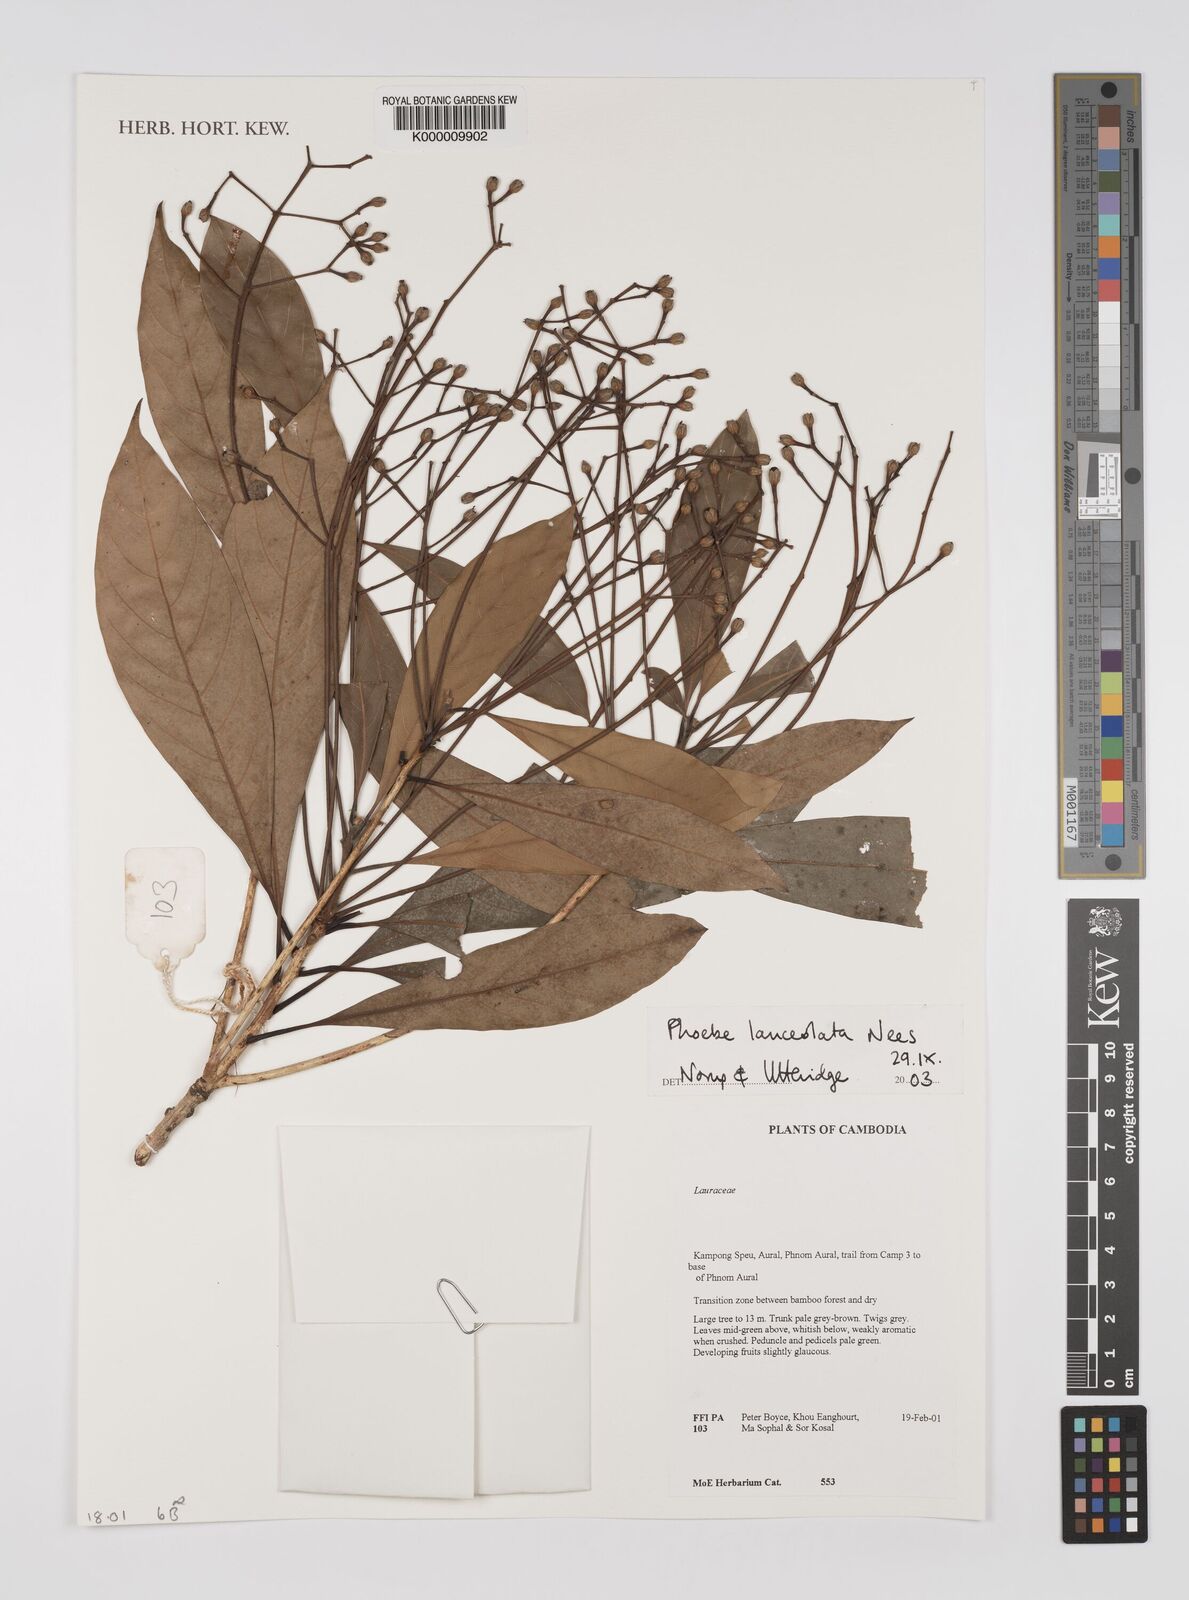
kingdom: Plantae
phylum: Tracheophyta
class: Magnoliopsida
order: Laurales
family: Lauraceae
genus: Phoebe
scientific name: Phoebe lanceolata
